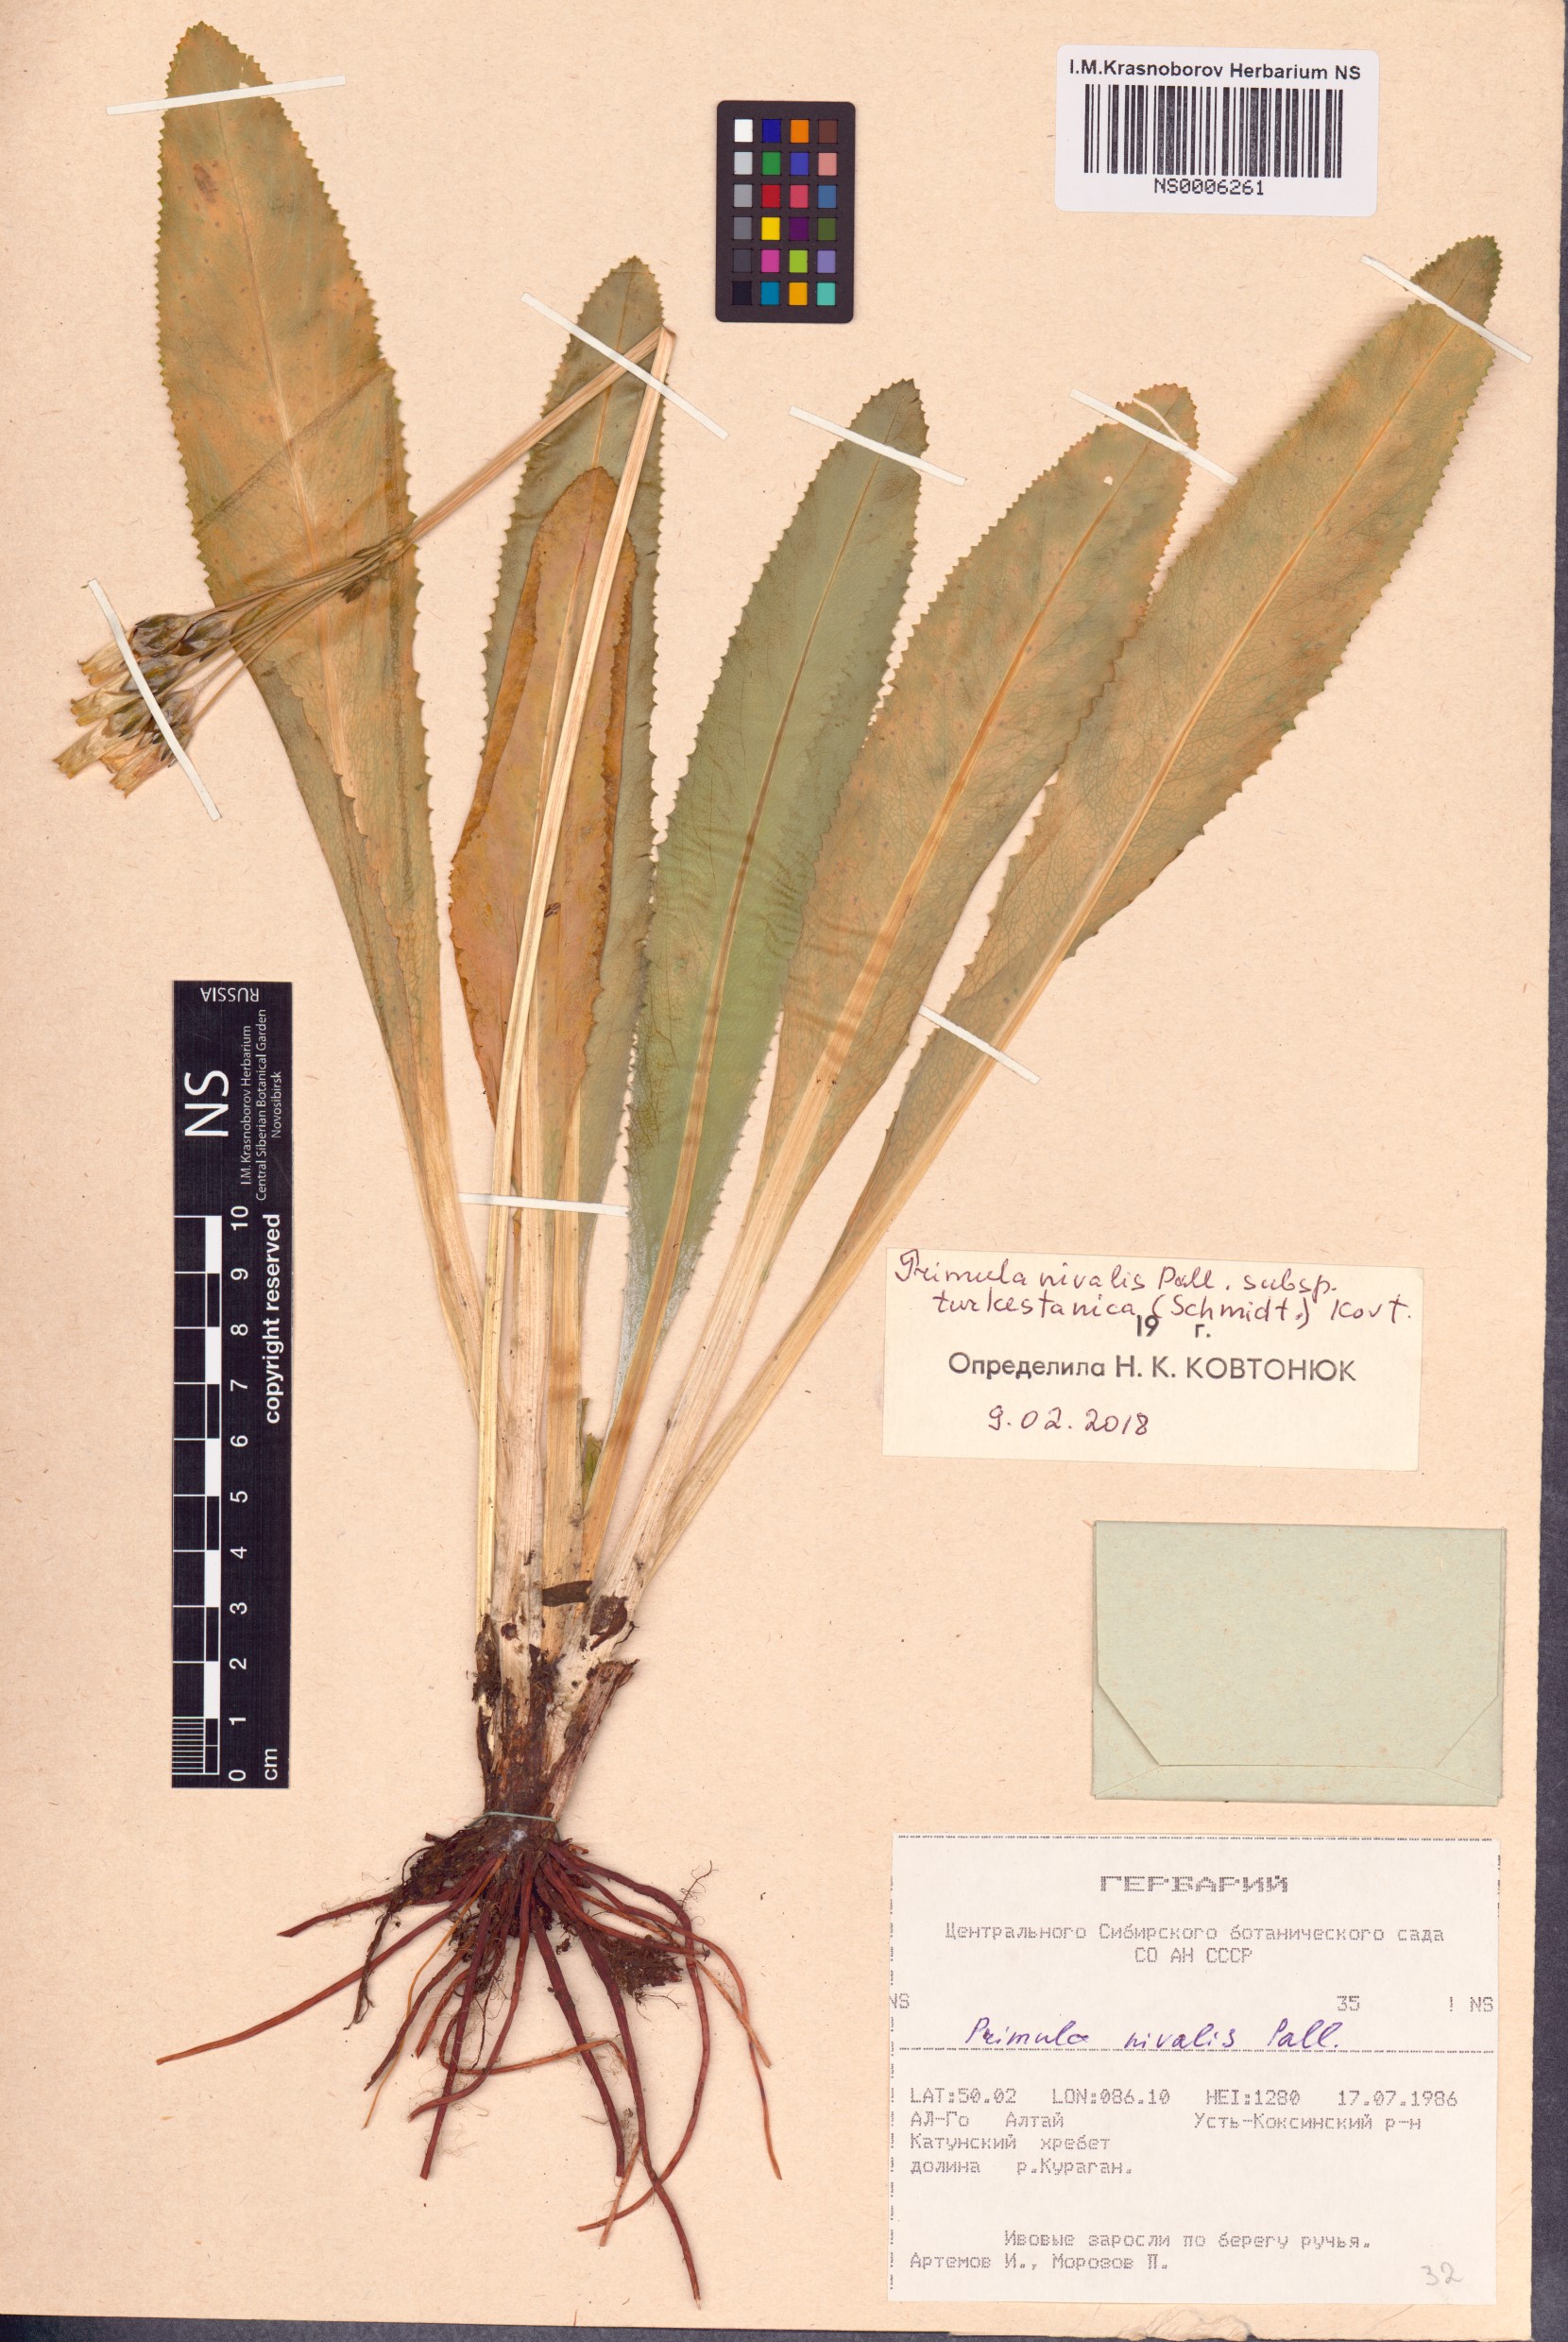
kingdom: Plantae
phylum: Tracheophyta
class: Magnoliopsida
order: Ericales
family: Primulaceae
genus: Primula
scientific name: Primula nivalis
